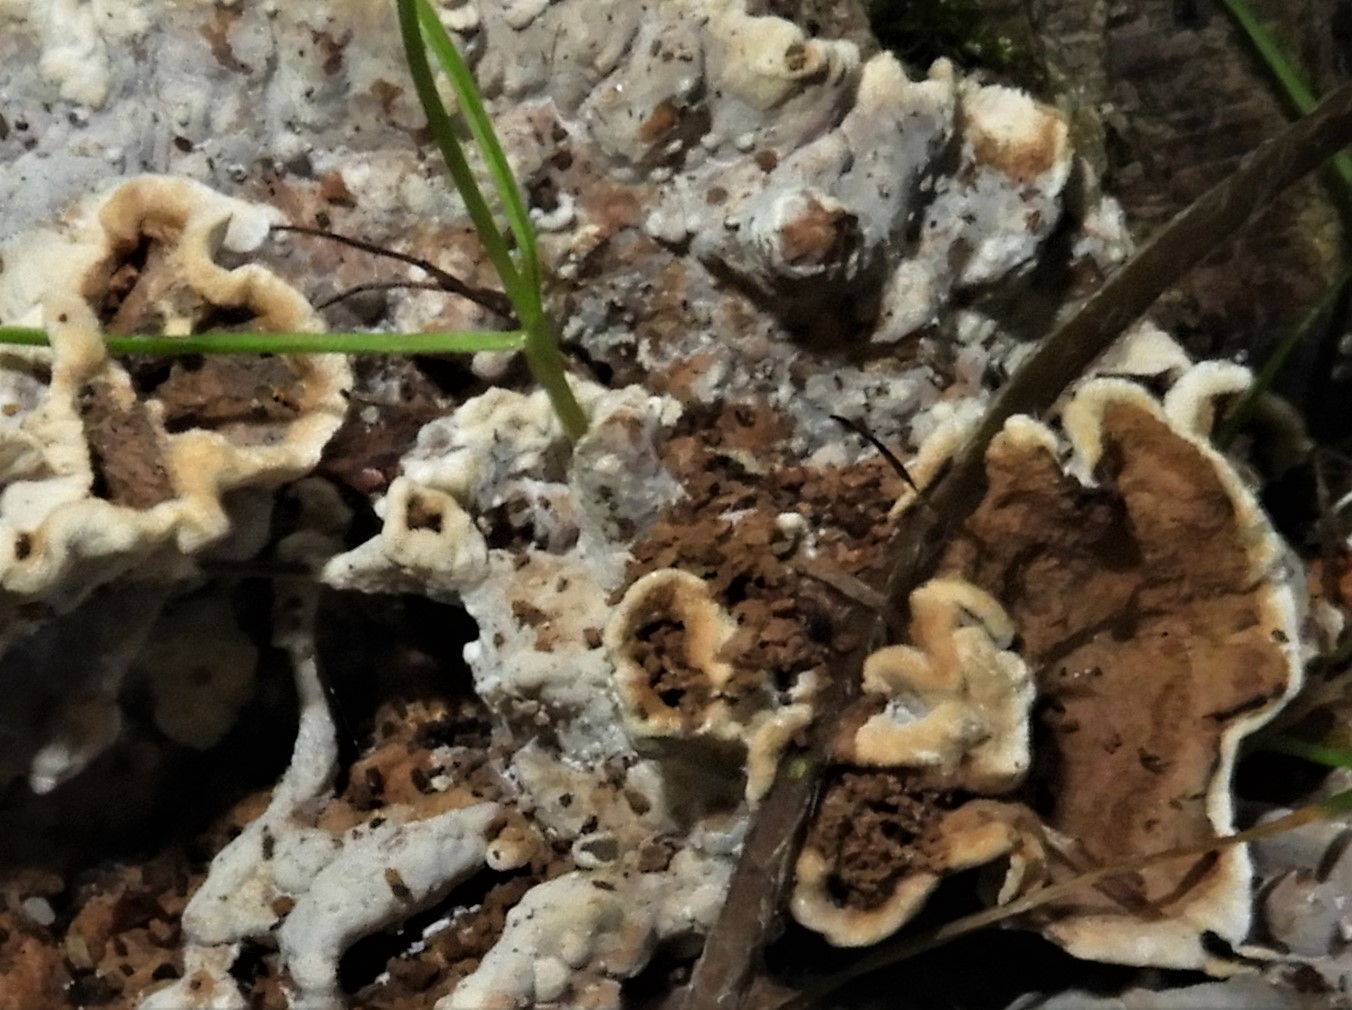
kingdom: Fungi
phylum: Basidiomycota
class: Agaricomycetes
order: Russulales
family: Hericiaceae
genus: Laxitextum
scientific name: Laxitextum bicolor
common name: tvefarvet filtskind
